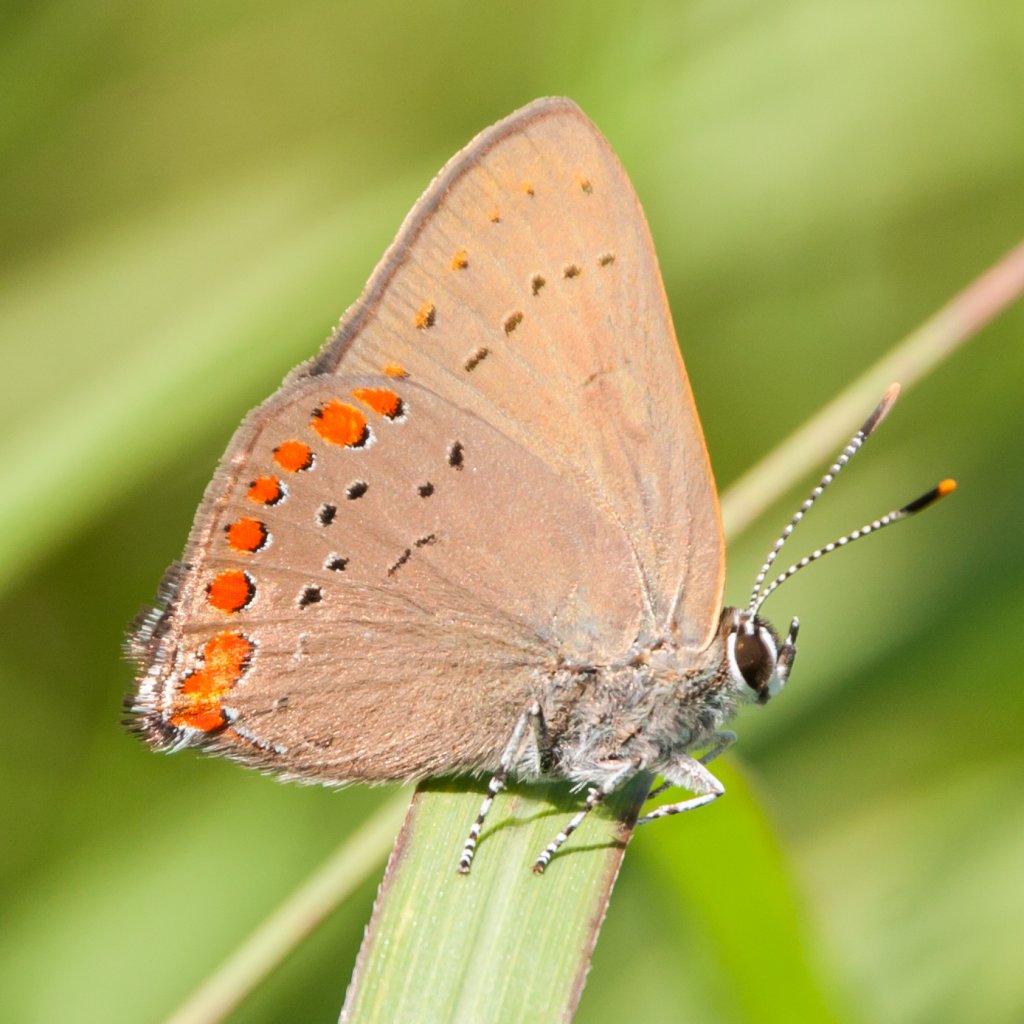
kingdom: Animalia
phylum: Arthropoda
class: Insecta
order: Lepidoptera
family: Lycaenidae
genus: Harkenclenus
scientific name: Harkenclenus titus
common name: Coral Hairstreak
